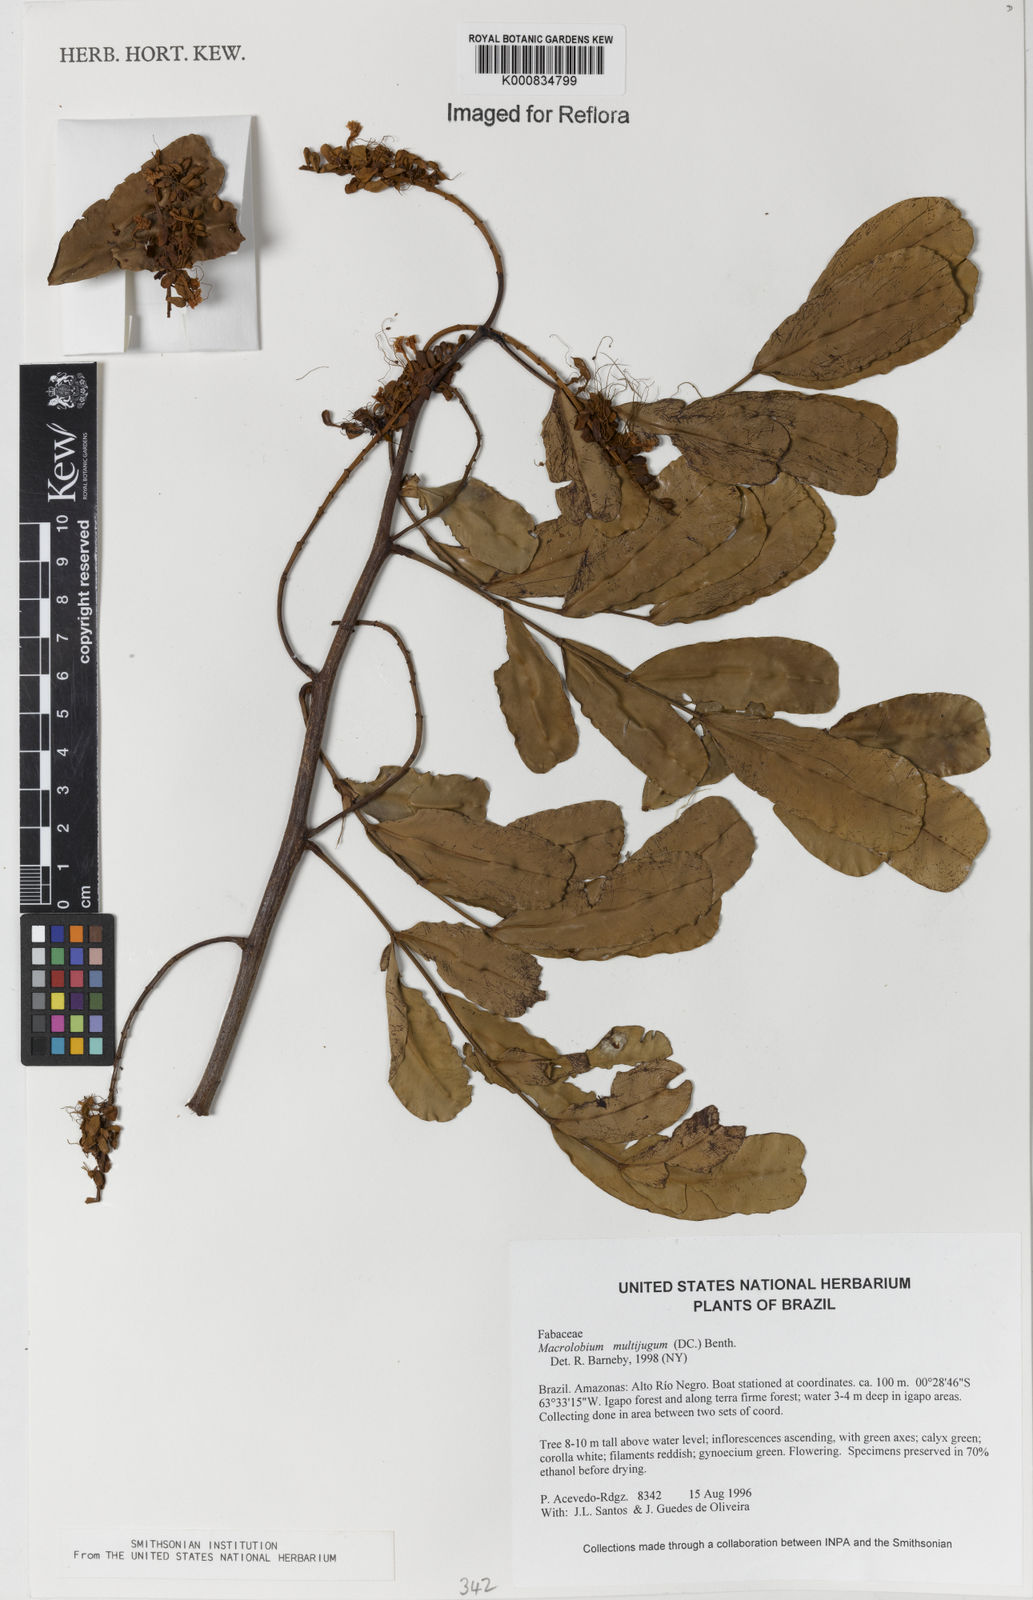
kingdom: Plantae
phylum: Tracheophyta
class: Magnoliopsida
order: Fabales
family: Fabaceae
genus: Macrolobium
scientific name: Macrolobium multijugum
